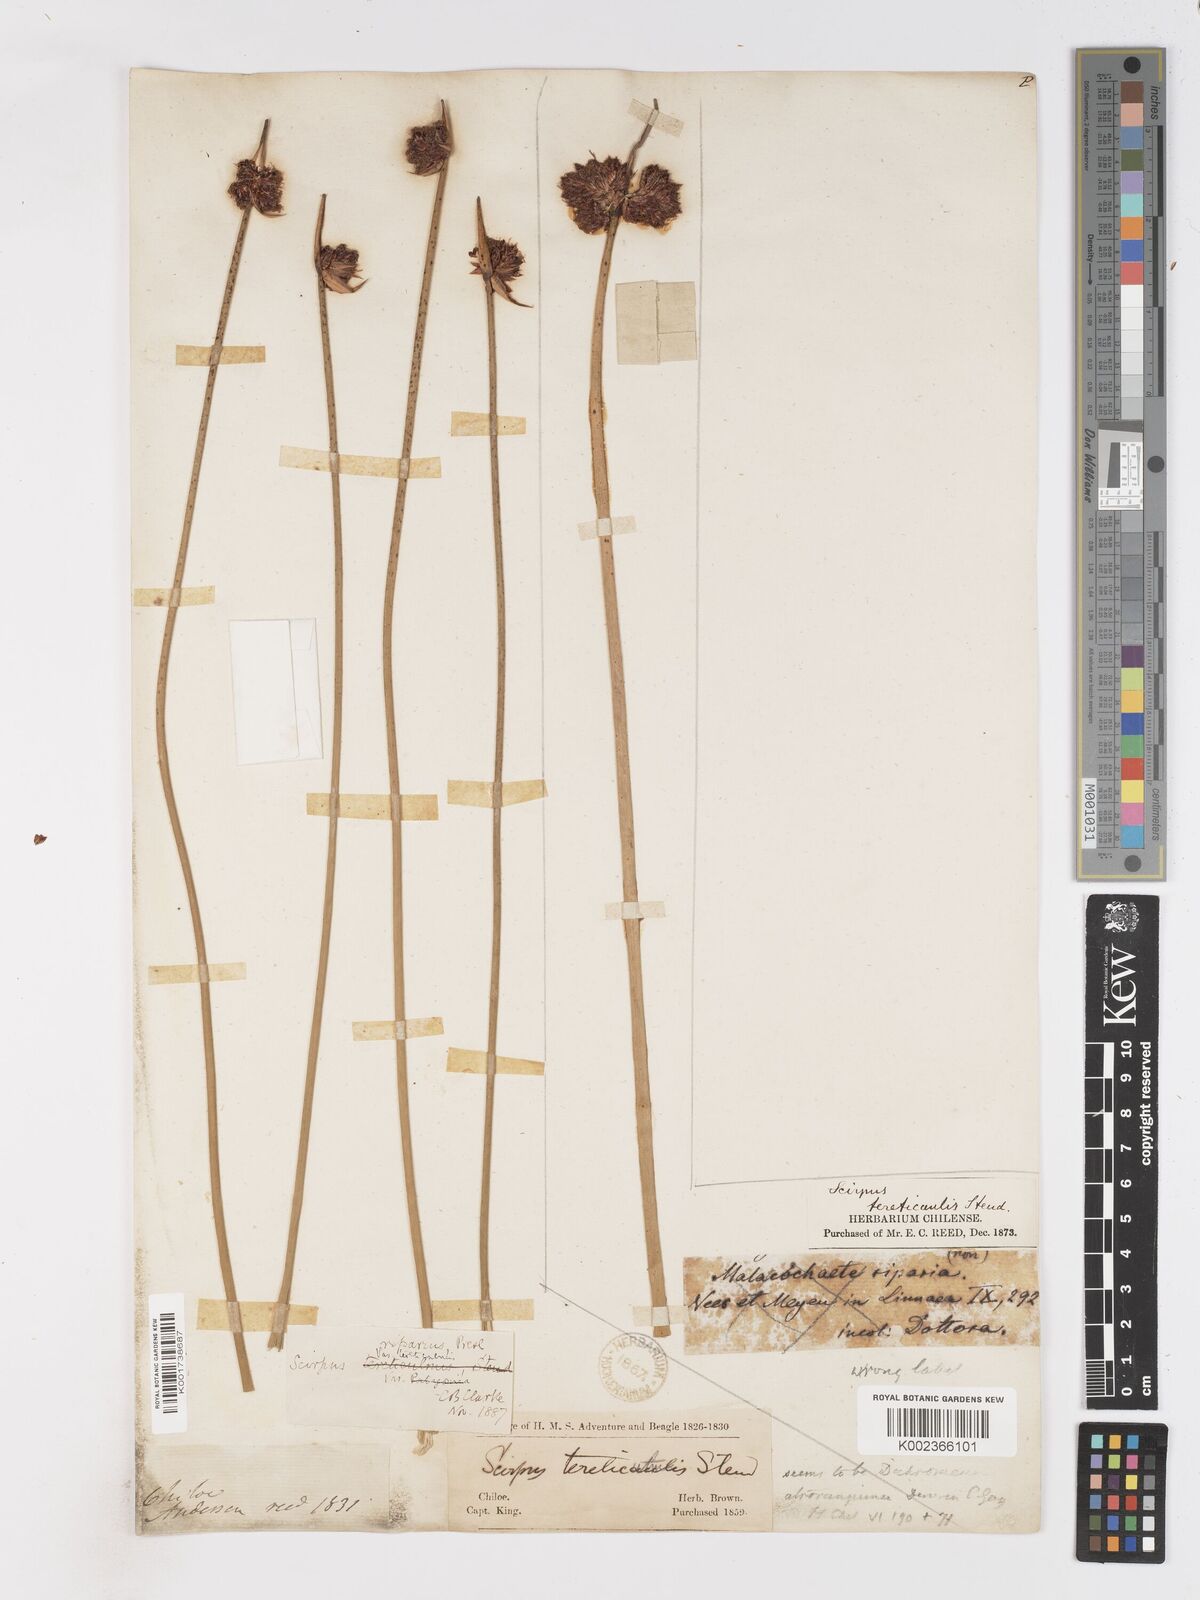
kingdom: Plantae
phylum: Tracheophyta
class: Liliopsida
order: Poales
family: Cyperaceae
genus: Schoenoplectus
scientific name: Schoenoplectus californicus
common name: California bulrush
